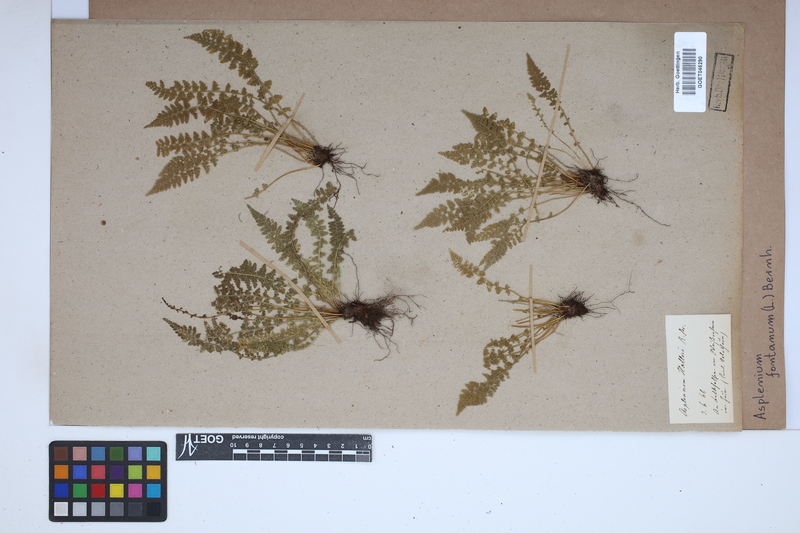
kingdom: Plantae
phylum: Tracheophyta
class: Polypodiopsida
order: Polypodiales
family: Aspleniaceae
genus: Asplenium
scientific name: Asplenium fontanum
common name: Fountain spleenwort
